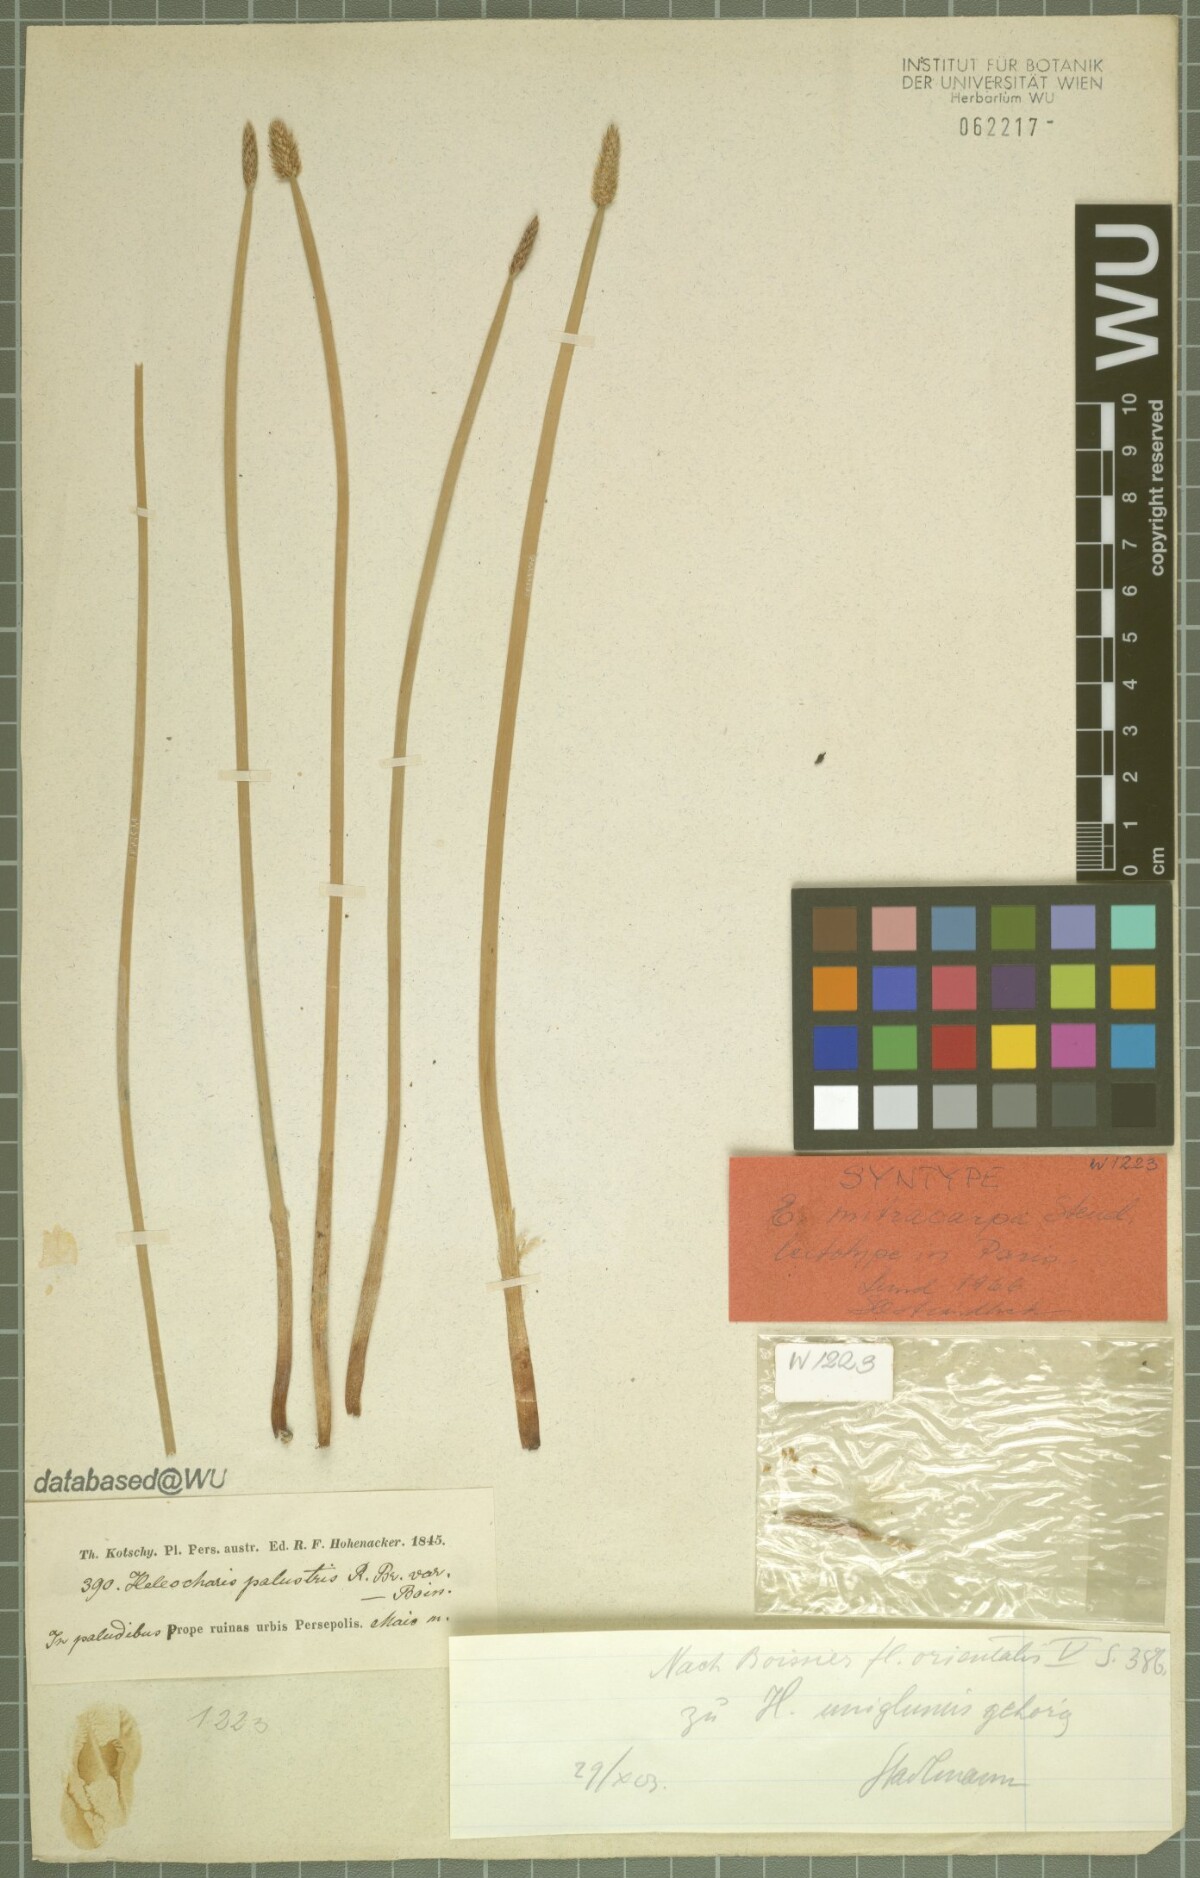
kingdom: Plantae
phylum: Tracheophyta
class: Liliopsida
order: Poales
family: Cyperaceae
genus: Eleocharis
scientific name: Eleocharis mitracarpa
